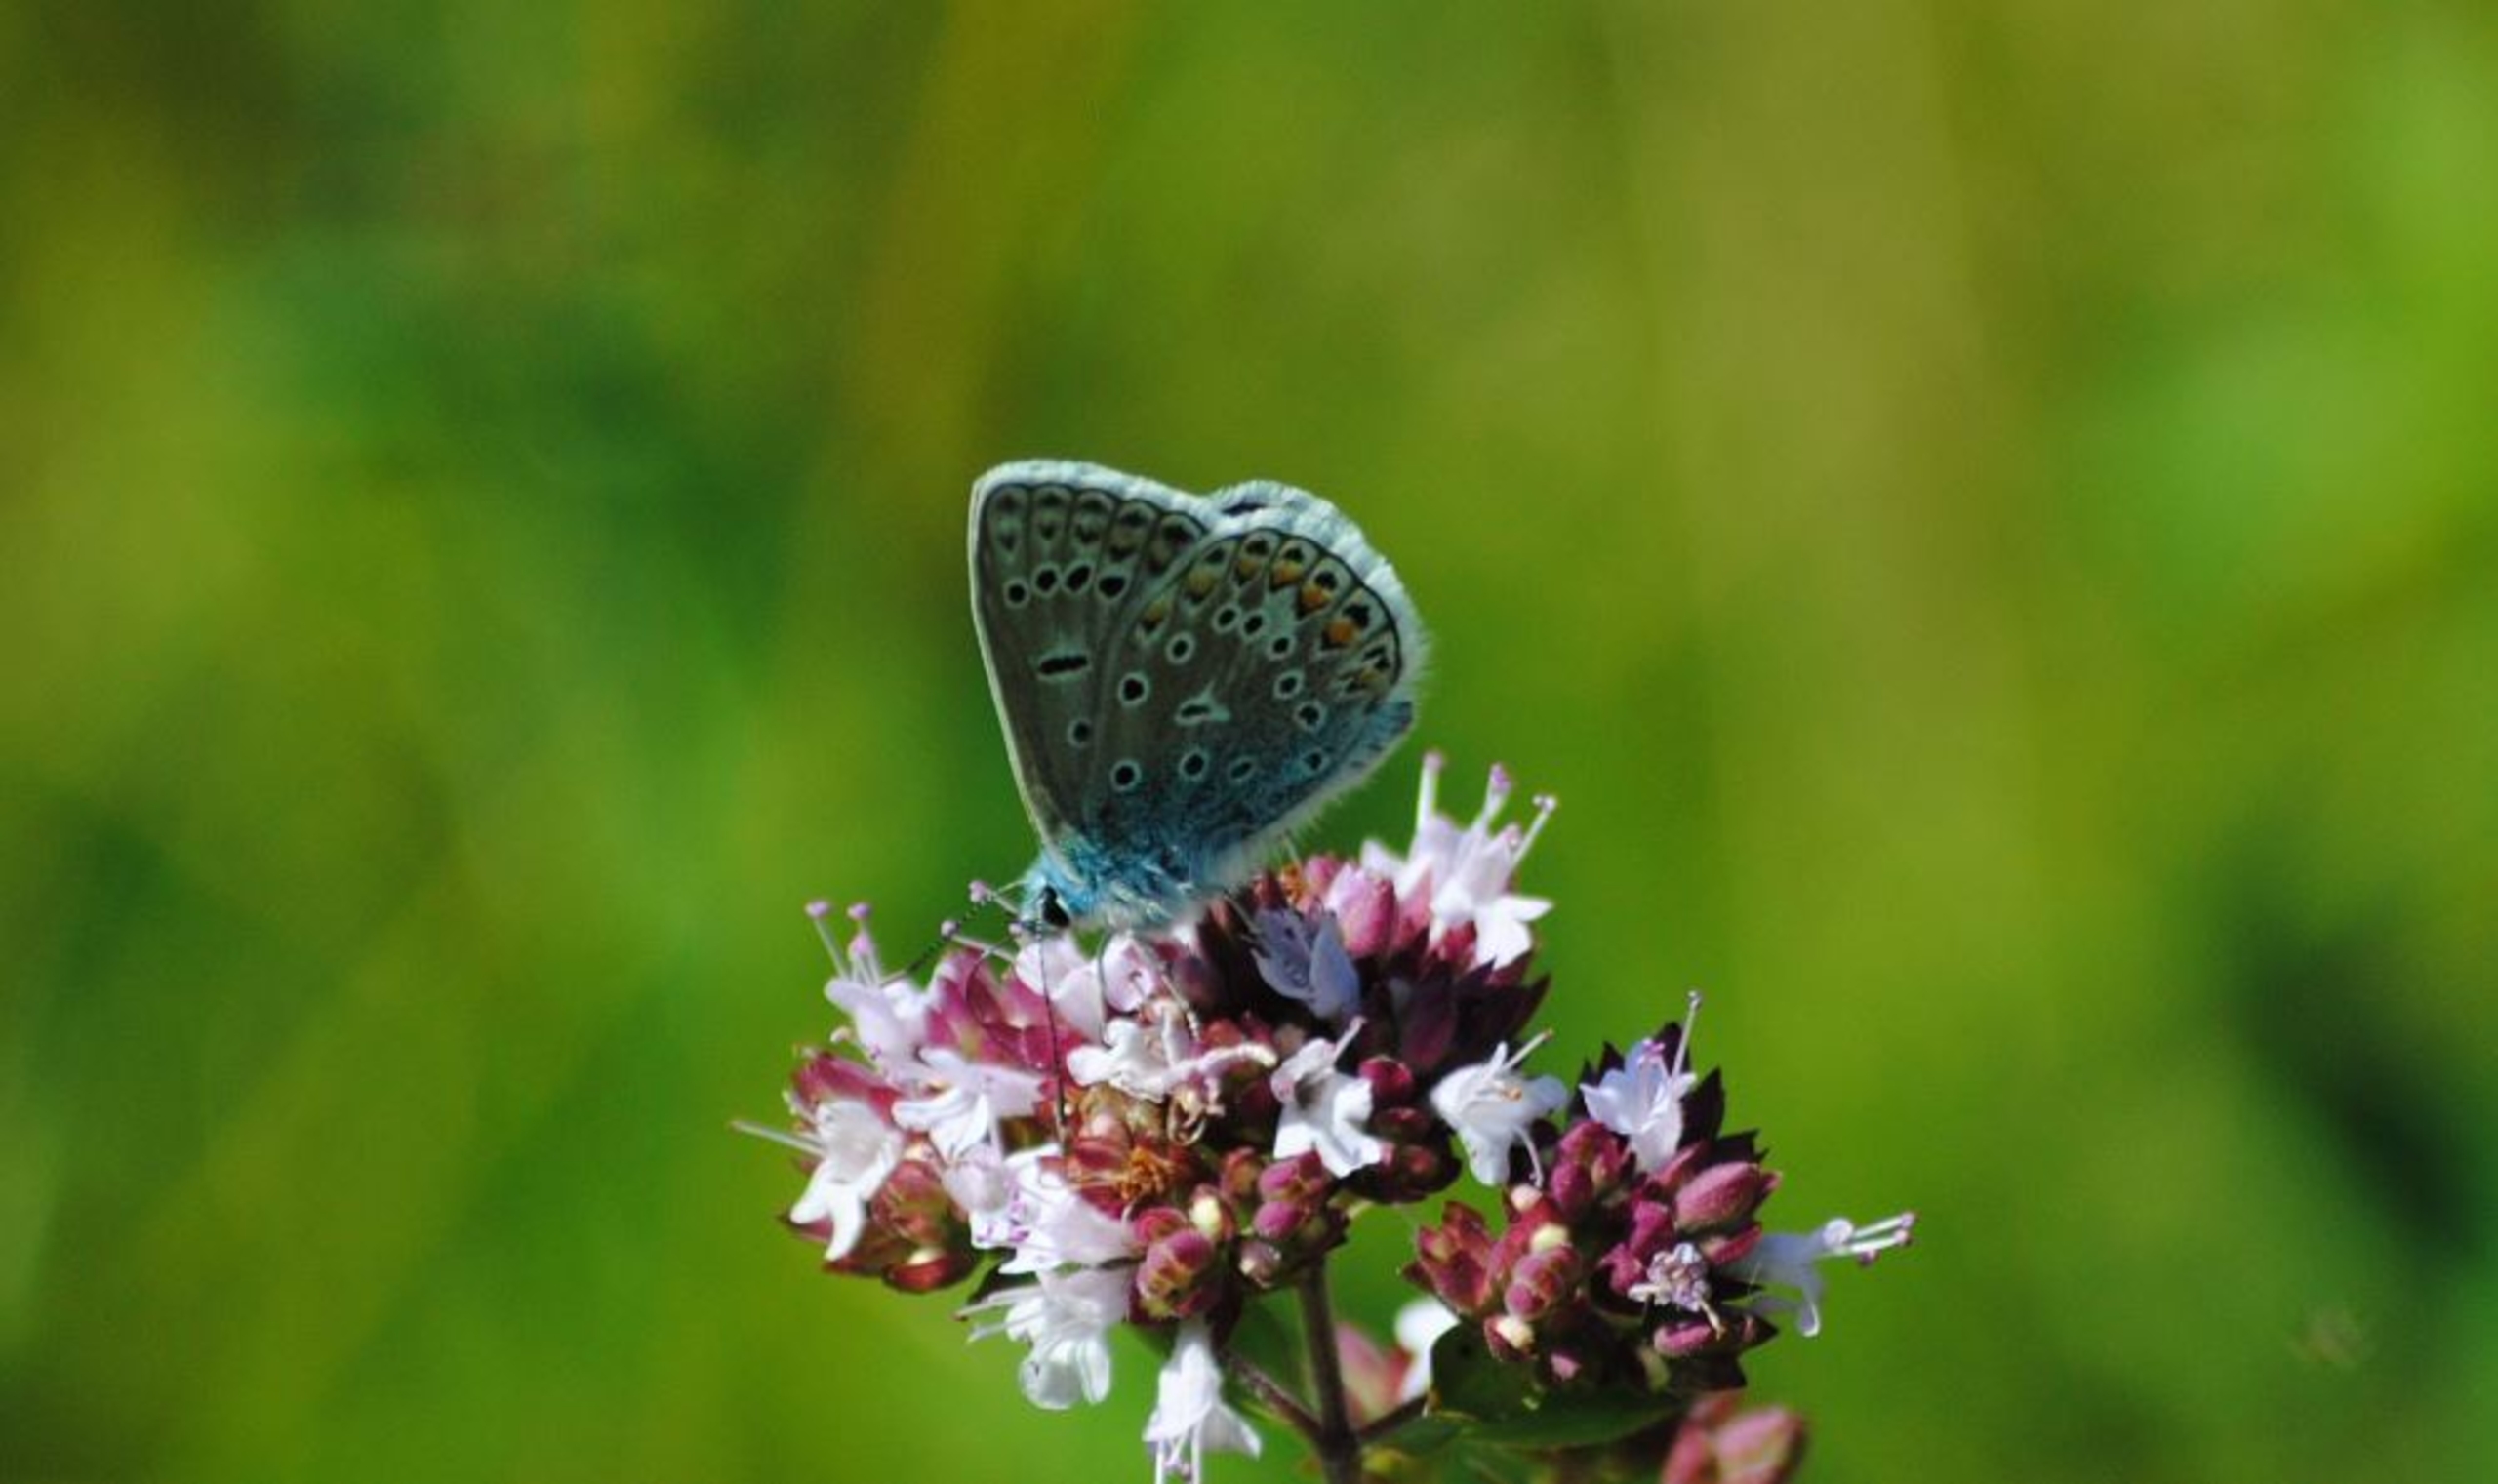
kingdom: Animalia
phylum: Arthropoda
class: Insecta
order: Lepidoptera
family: Lycaenidae
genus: Polyommatus
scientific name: Polyommatus icarus
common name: Almindelig blåfugl
